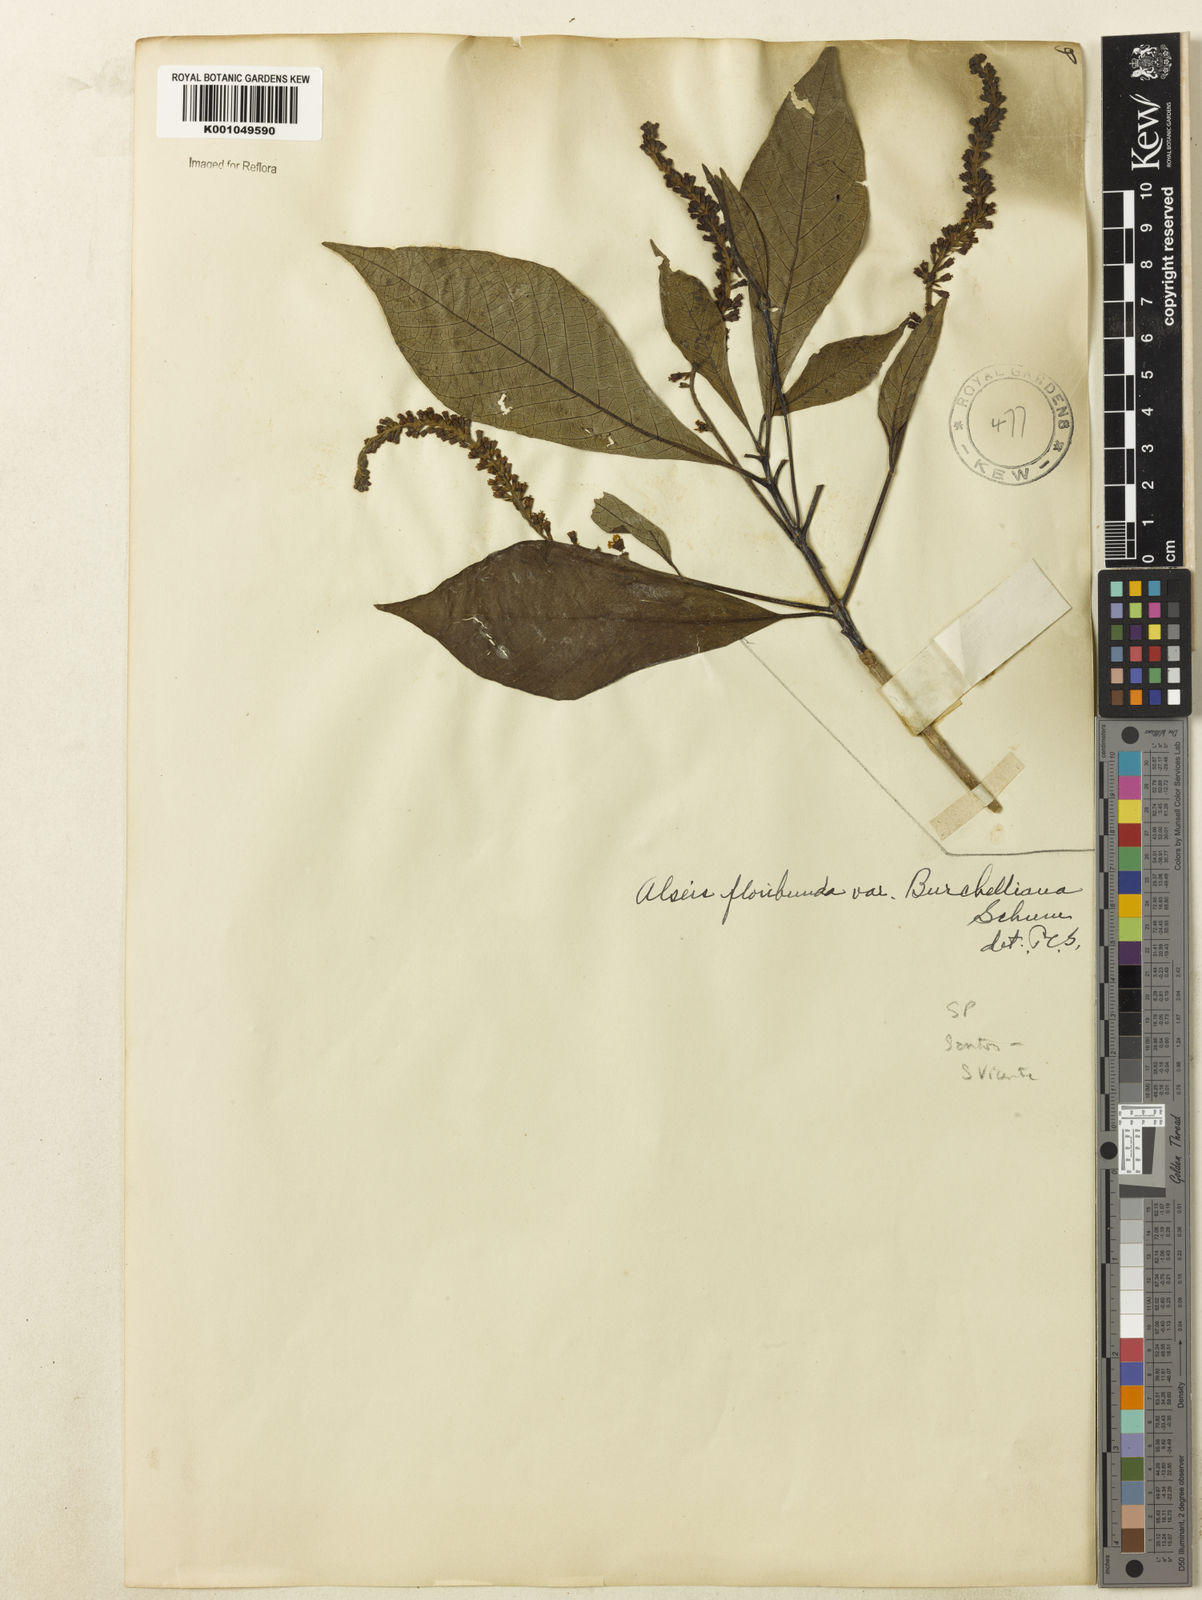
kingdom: Plantae
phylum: Tracheophyta
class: Magnoliopsida
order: Gentianales
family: Rubiaceae
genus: Alseis
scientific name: Alseis floribunda
